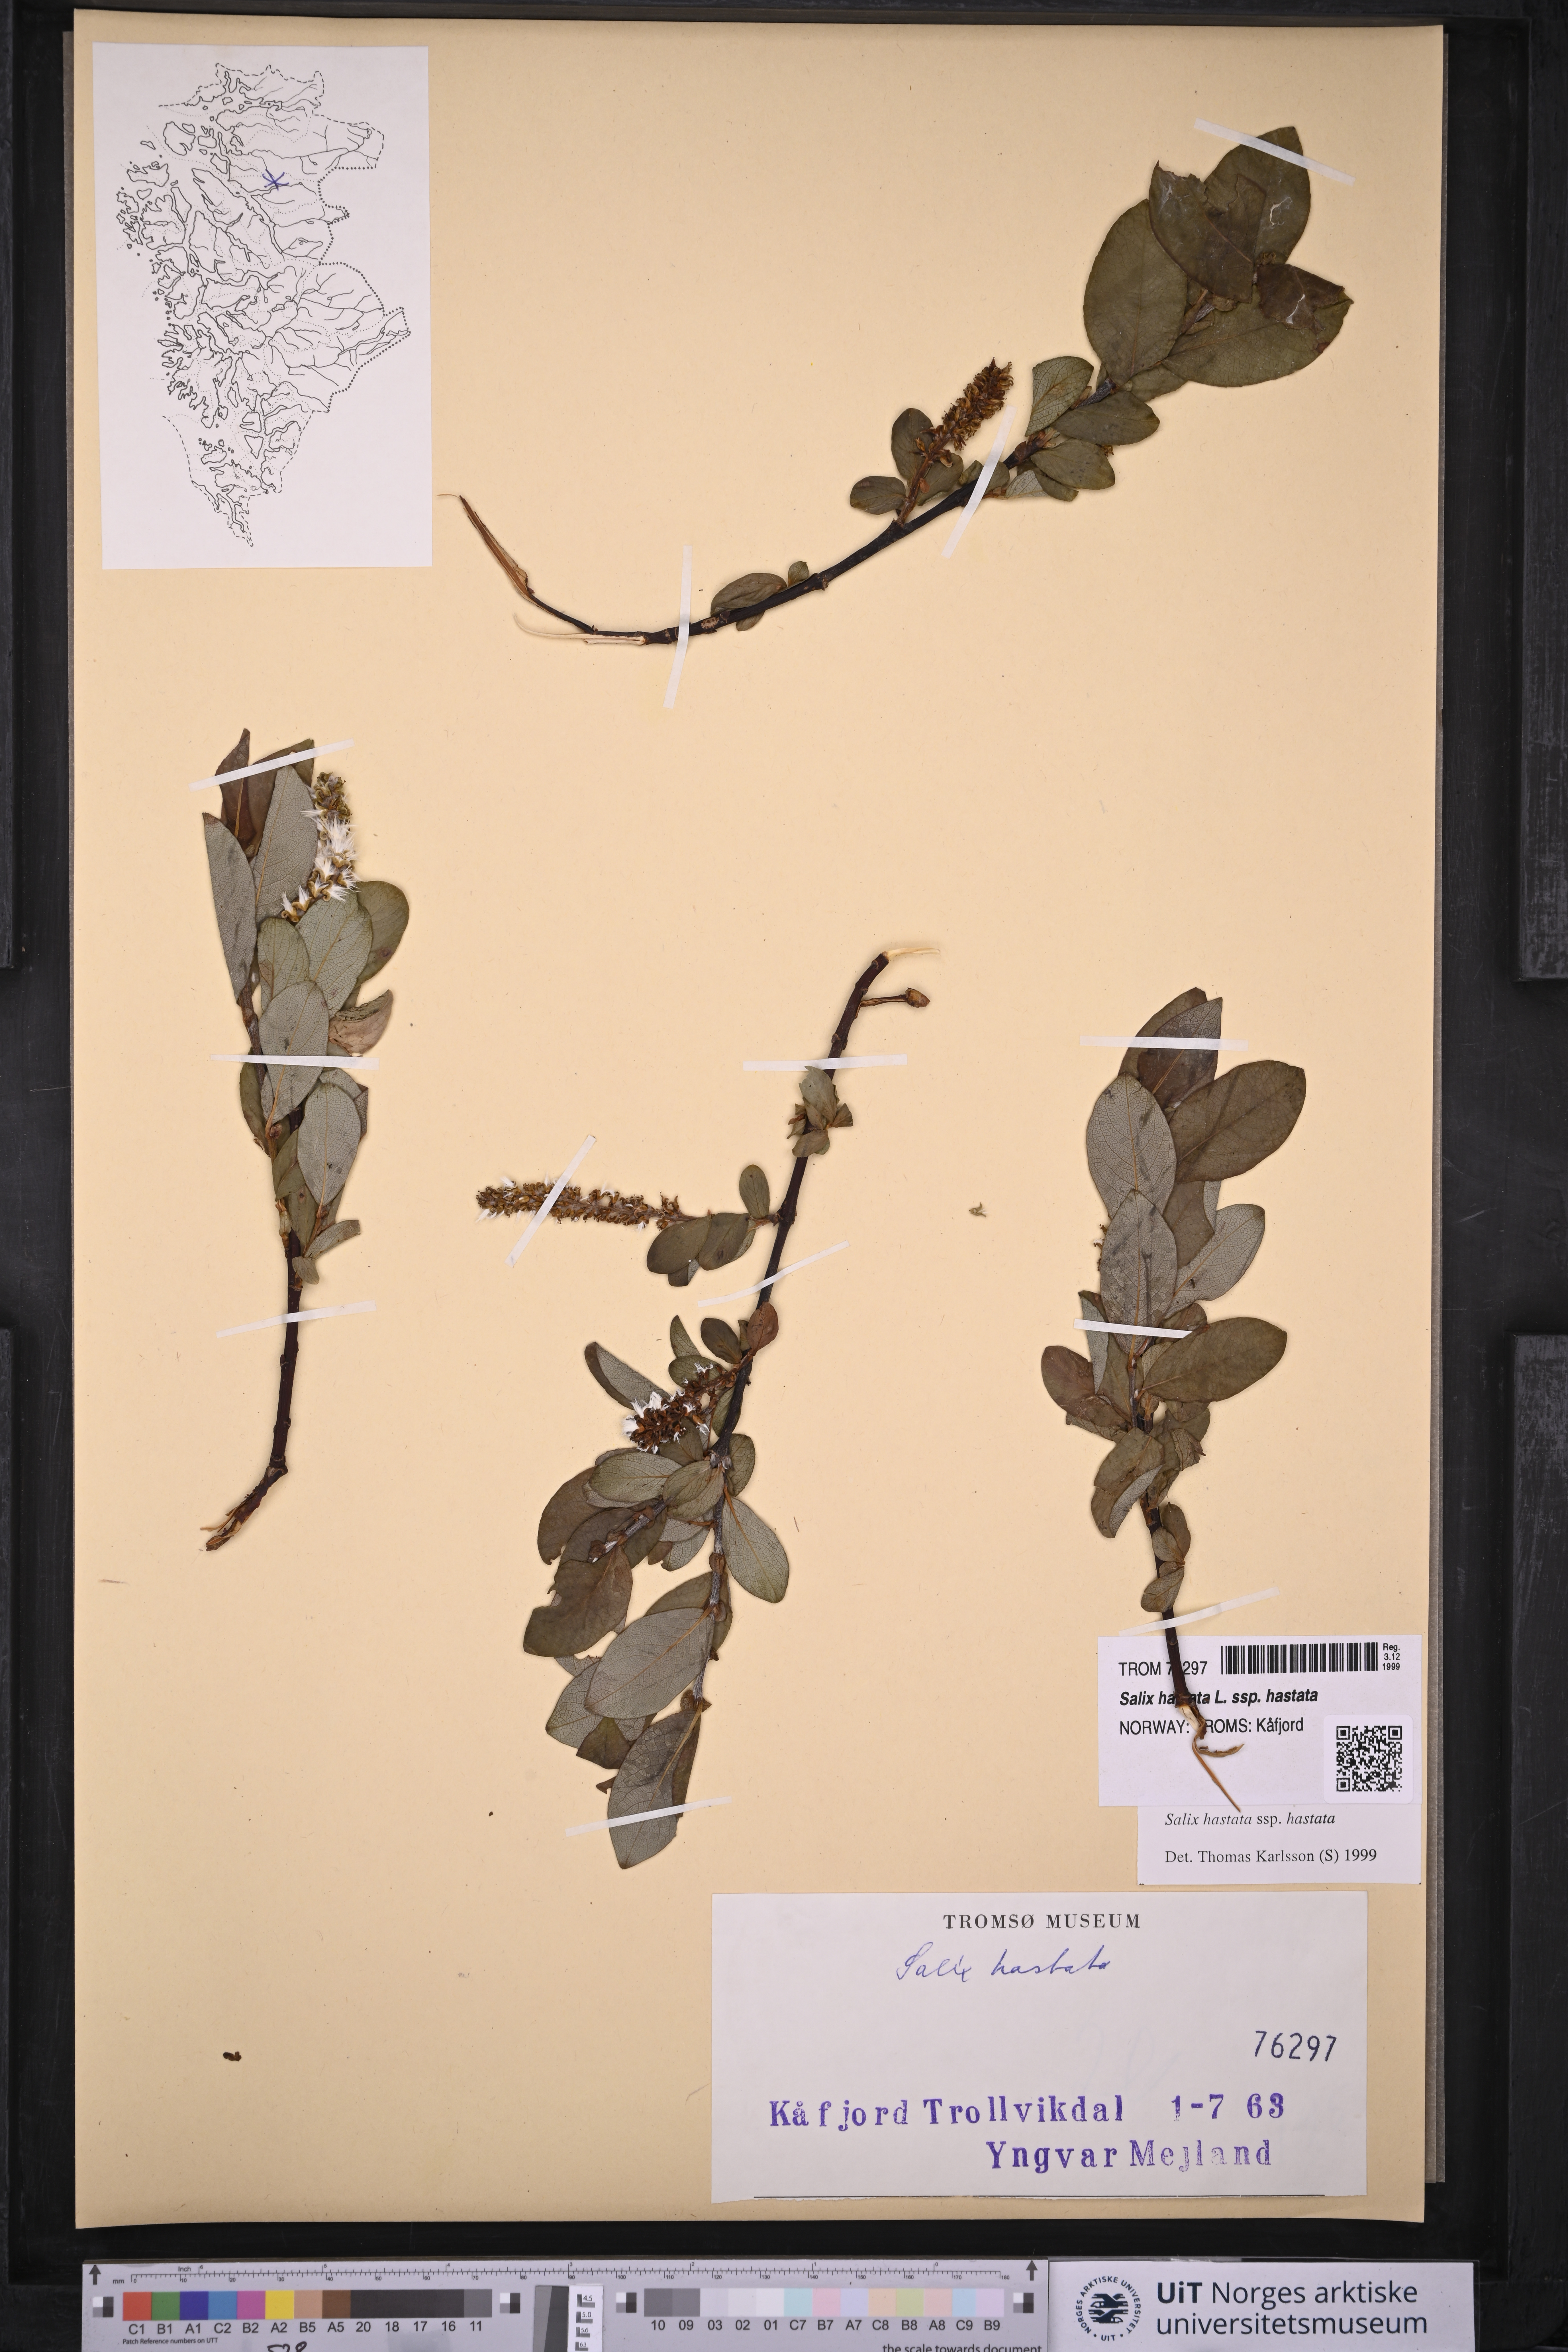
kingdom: Plantae
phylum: Tracheophyta
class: Magnoliopsida
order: Malpighiales
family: Salicaceae
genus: Salix
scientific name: Salix hastata
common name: Halberd willow
